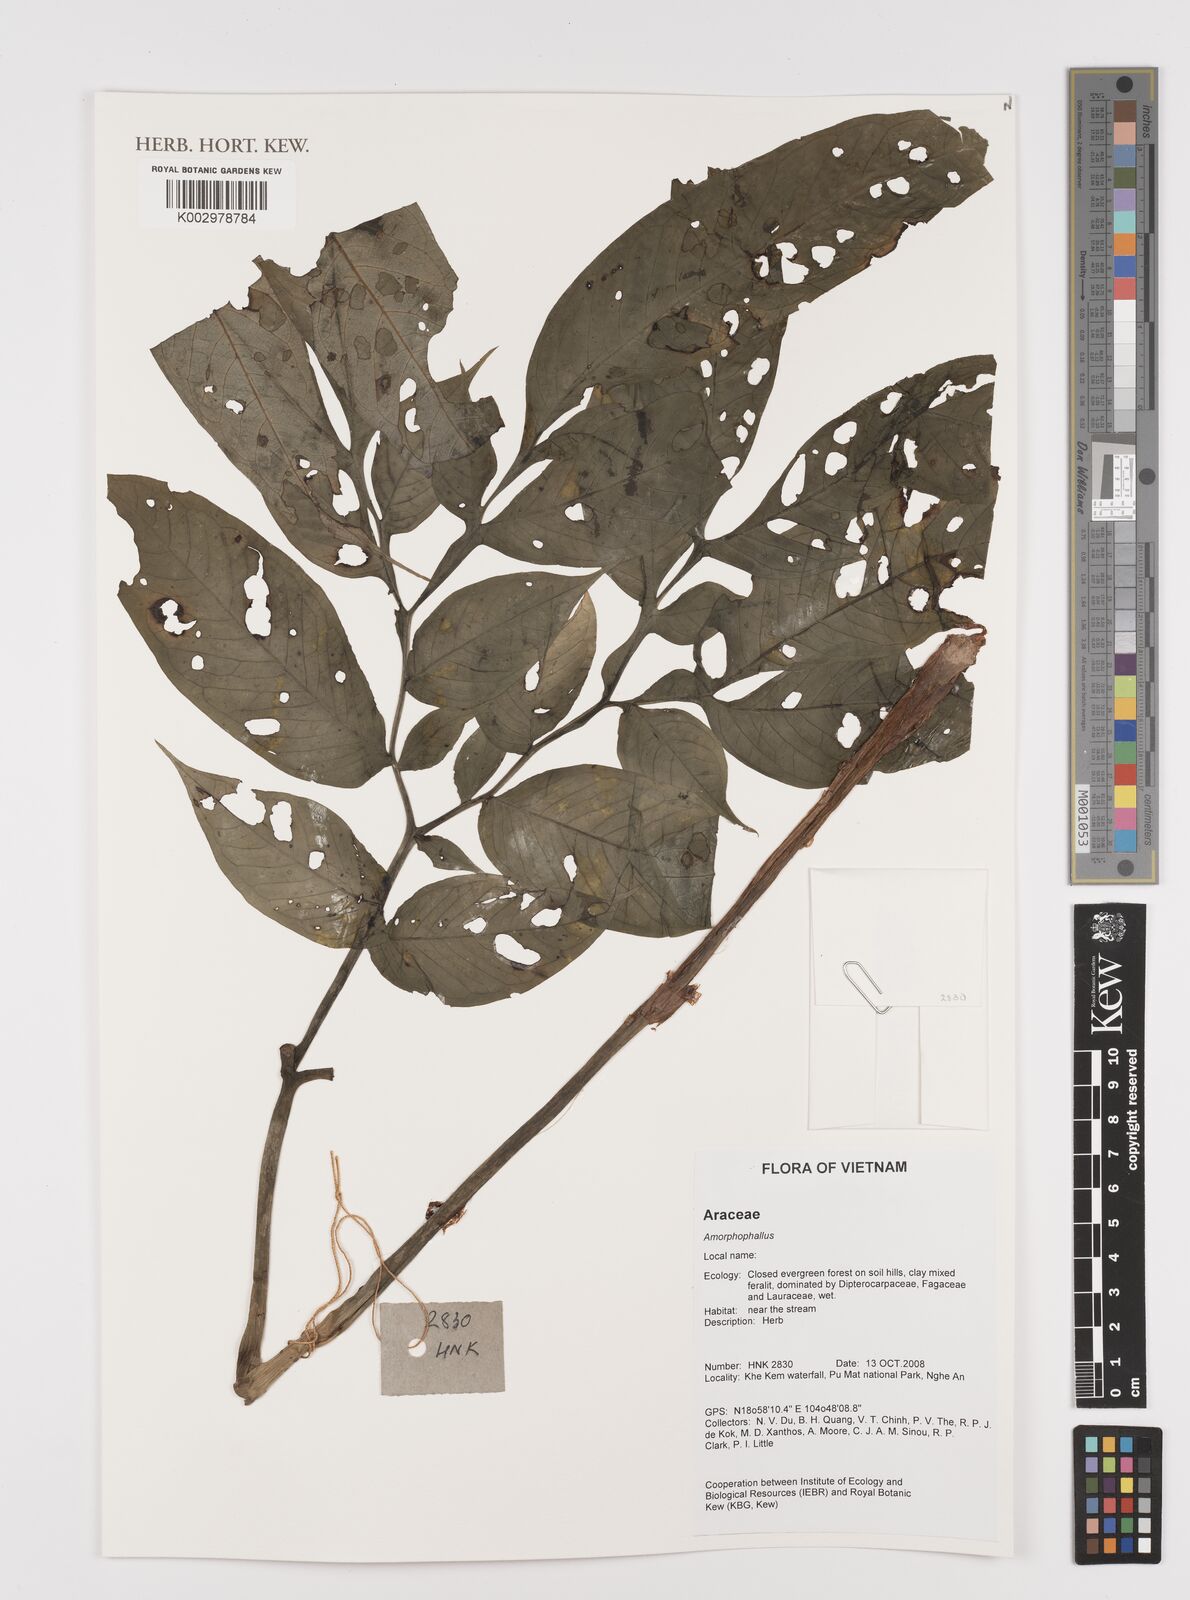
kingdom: Plantae
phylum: Tracheophyta
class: Liliopsida
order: Alismatales
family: Araceae
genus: Amorphophallus
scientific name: Amorphophallus
